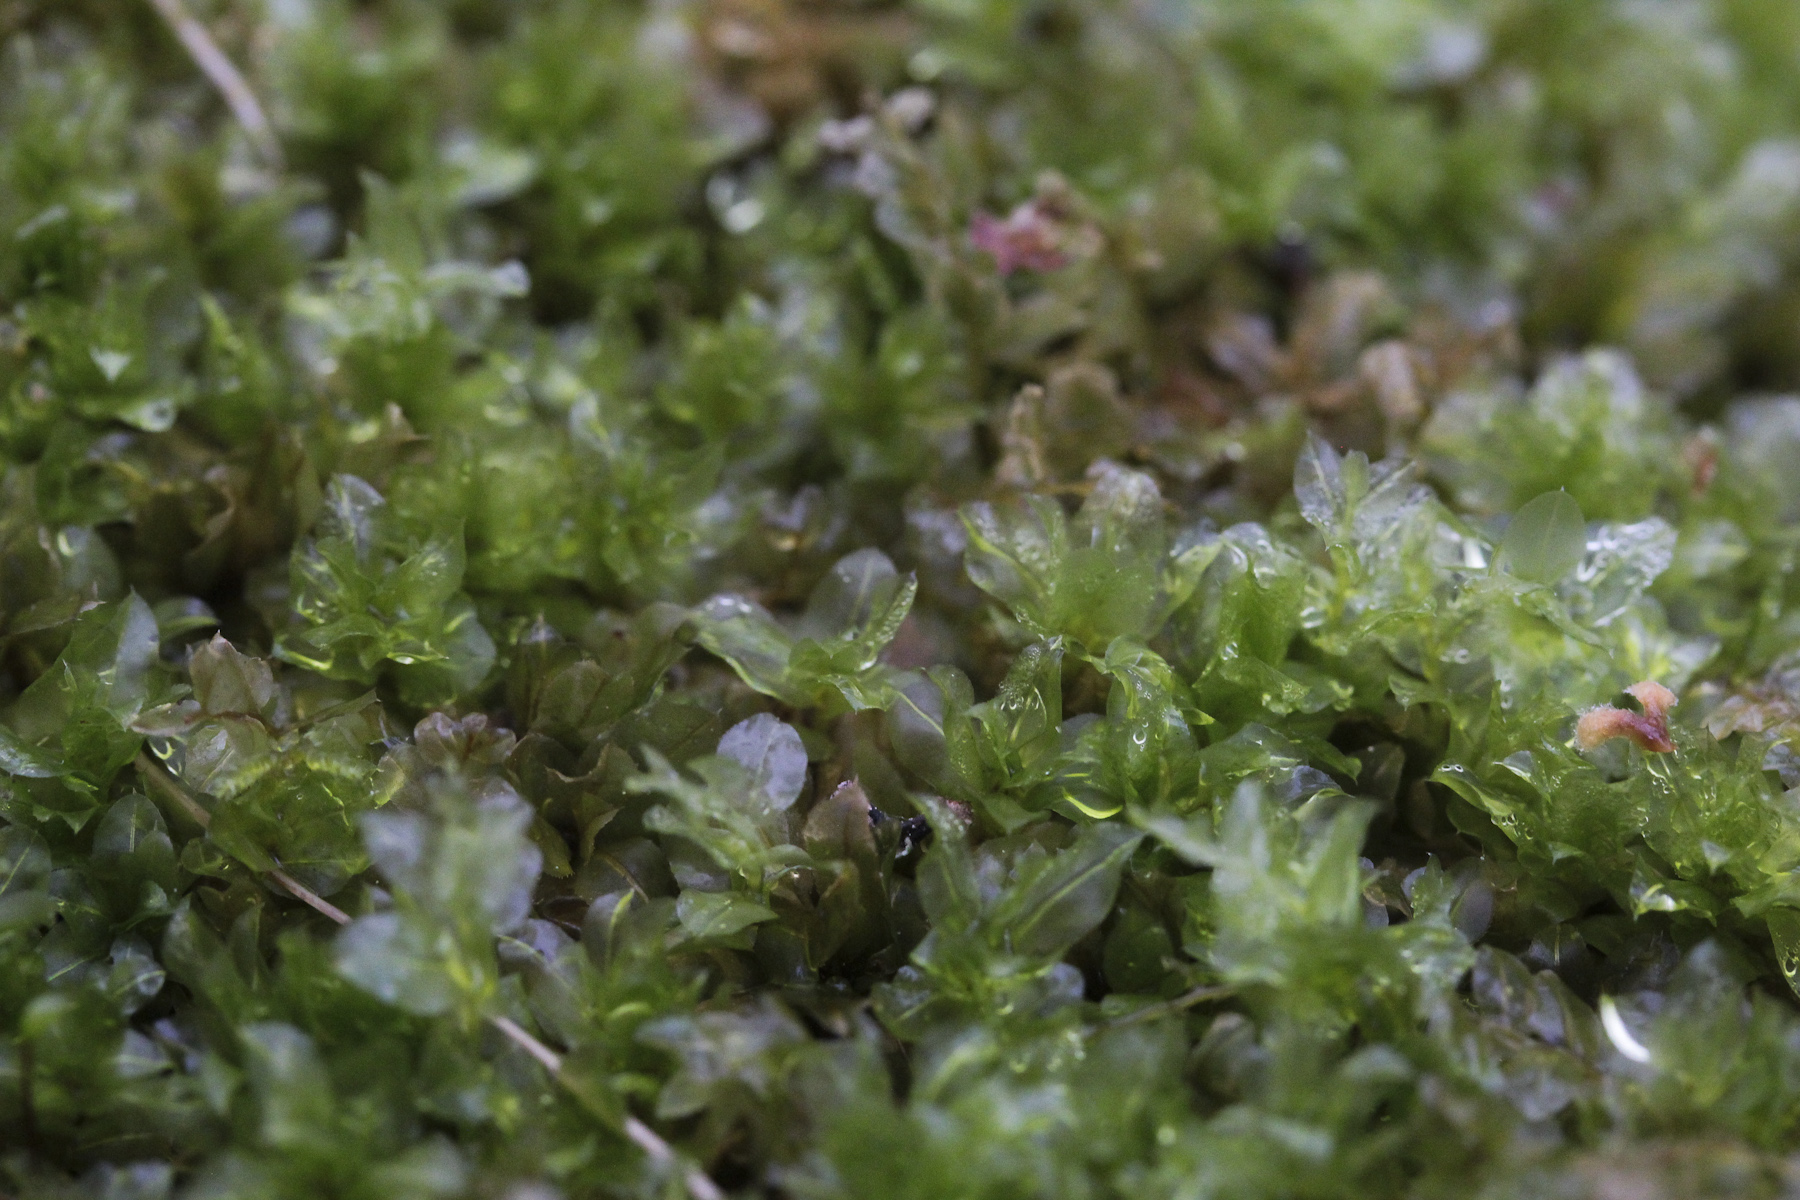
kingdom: Plantae
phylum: Bryophyta
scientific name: Bryophyta
